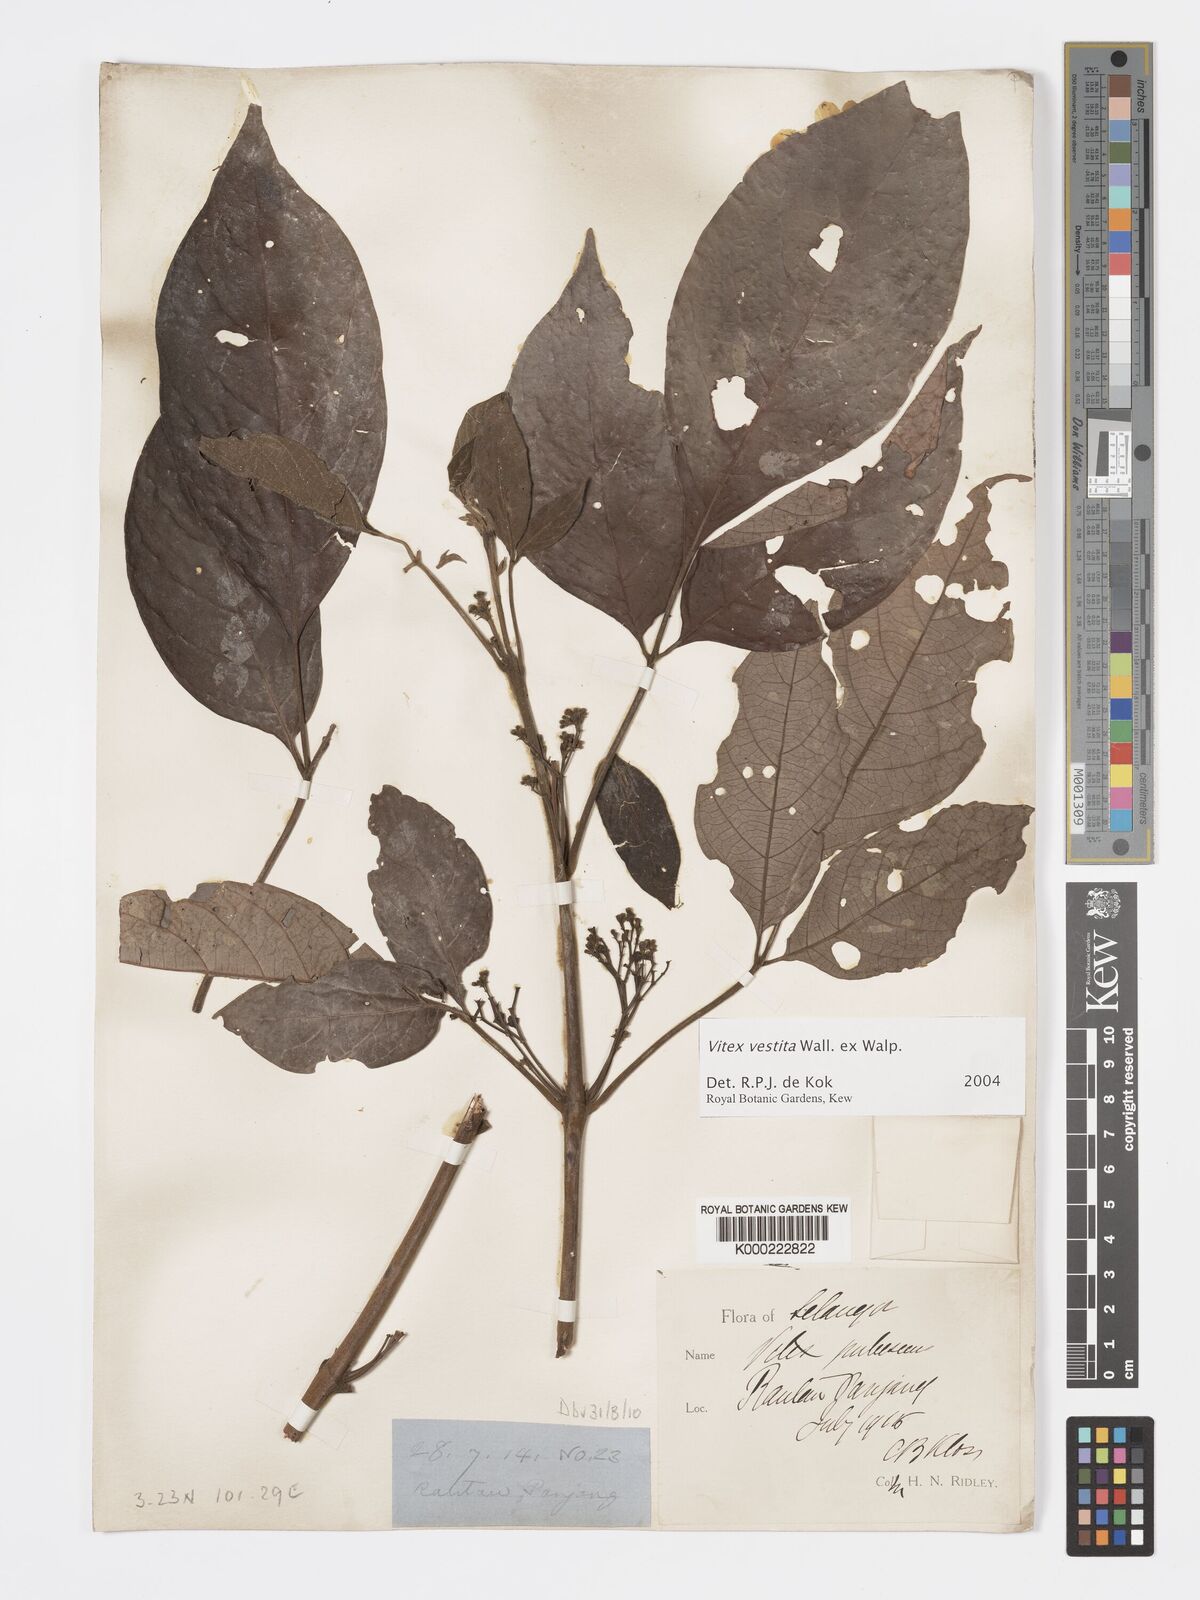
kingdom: Plantae
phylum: Tracheophyta
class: Magnoliopsida
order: Lamiales
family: Lamiaceae
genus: Vitex
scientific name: Vitex vestita
